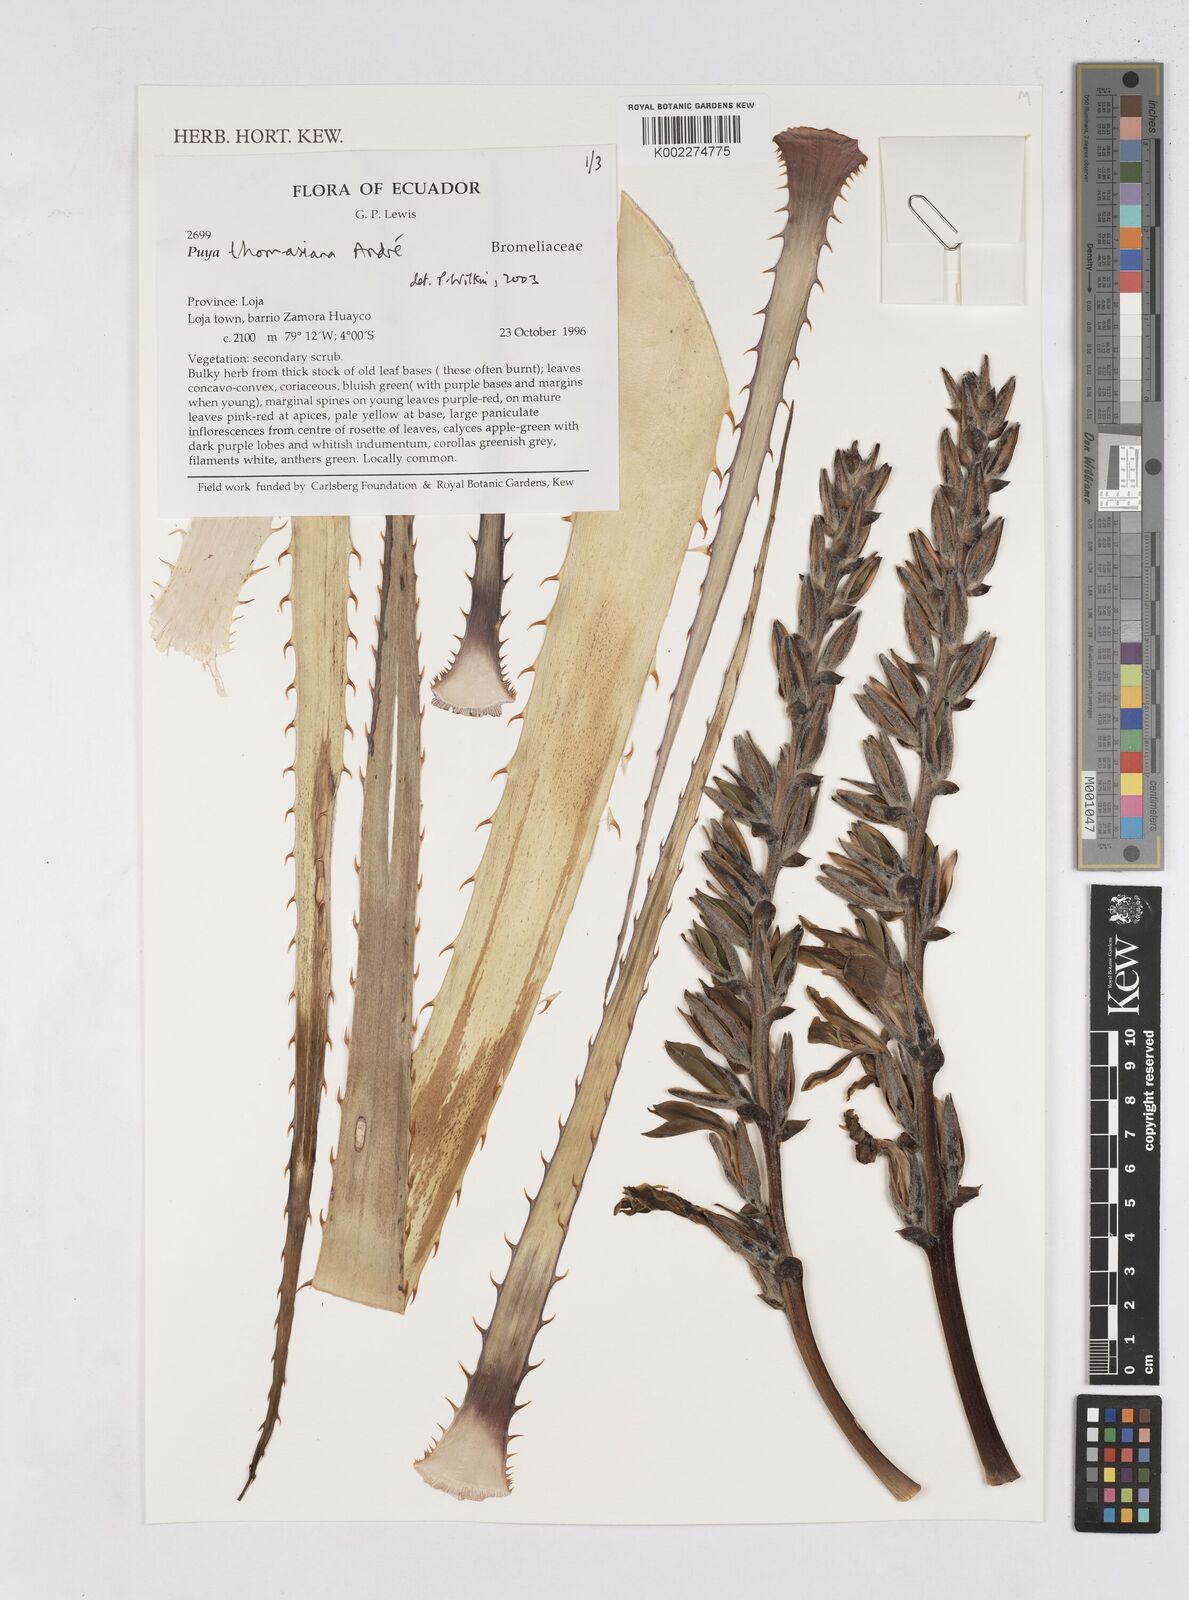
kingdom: Plantae
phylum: Tracheophyta
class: Liliopsida
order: Poales
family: Bromeliaceae
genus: Puya
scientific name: Puya thomasiana
